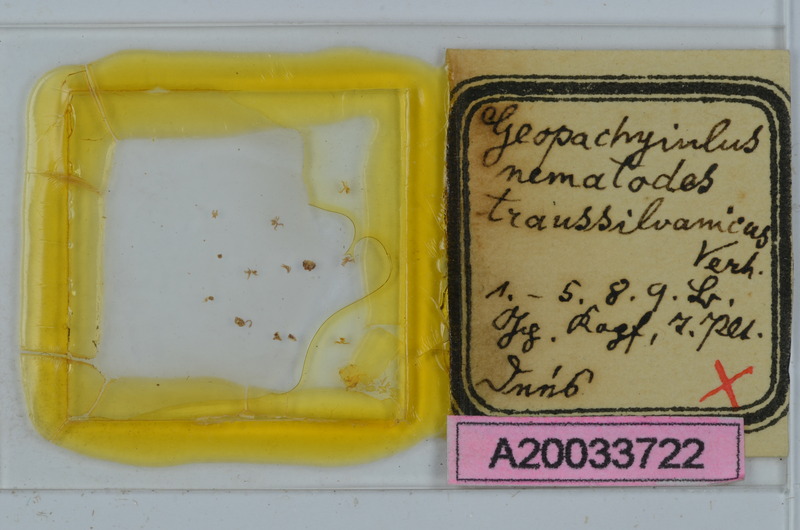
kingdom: Animalia
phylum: Arthropoda
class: Diplopoda
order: Julida
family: Julidae
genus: Geopachyiulus
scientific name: Geopachyiulus nematodes
